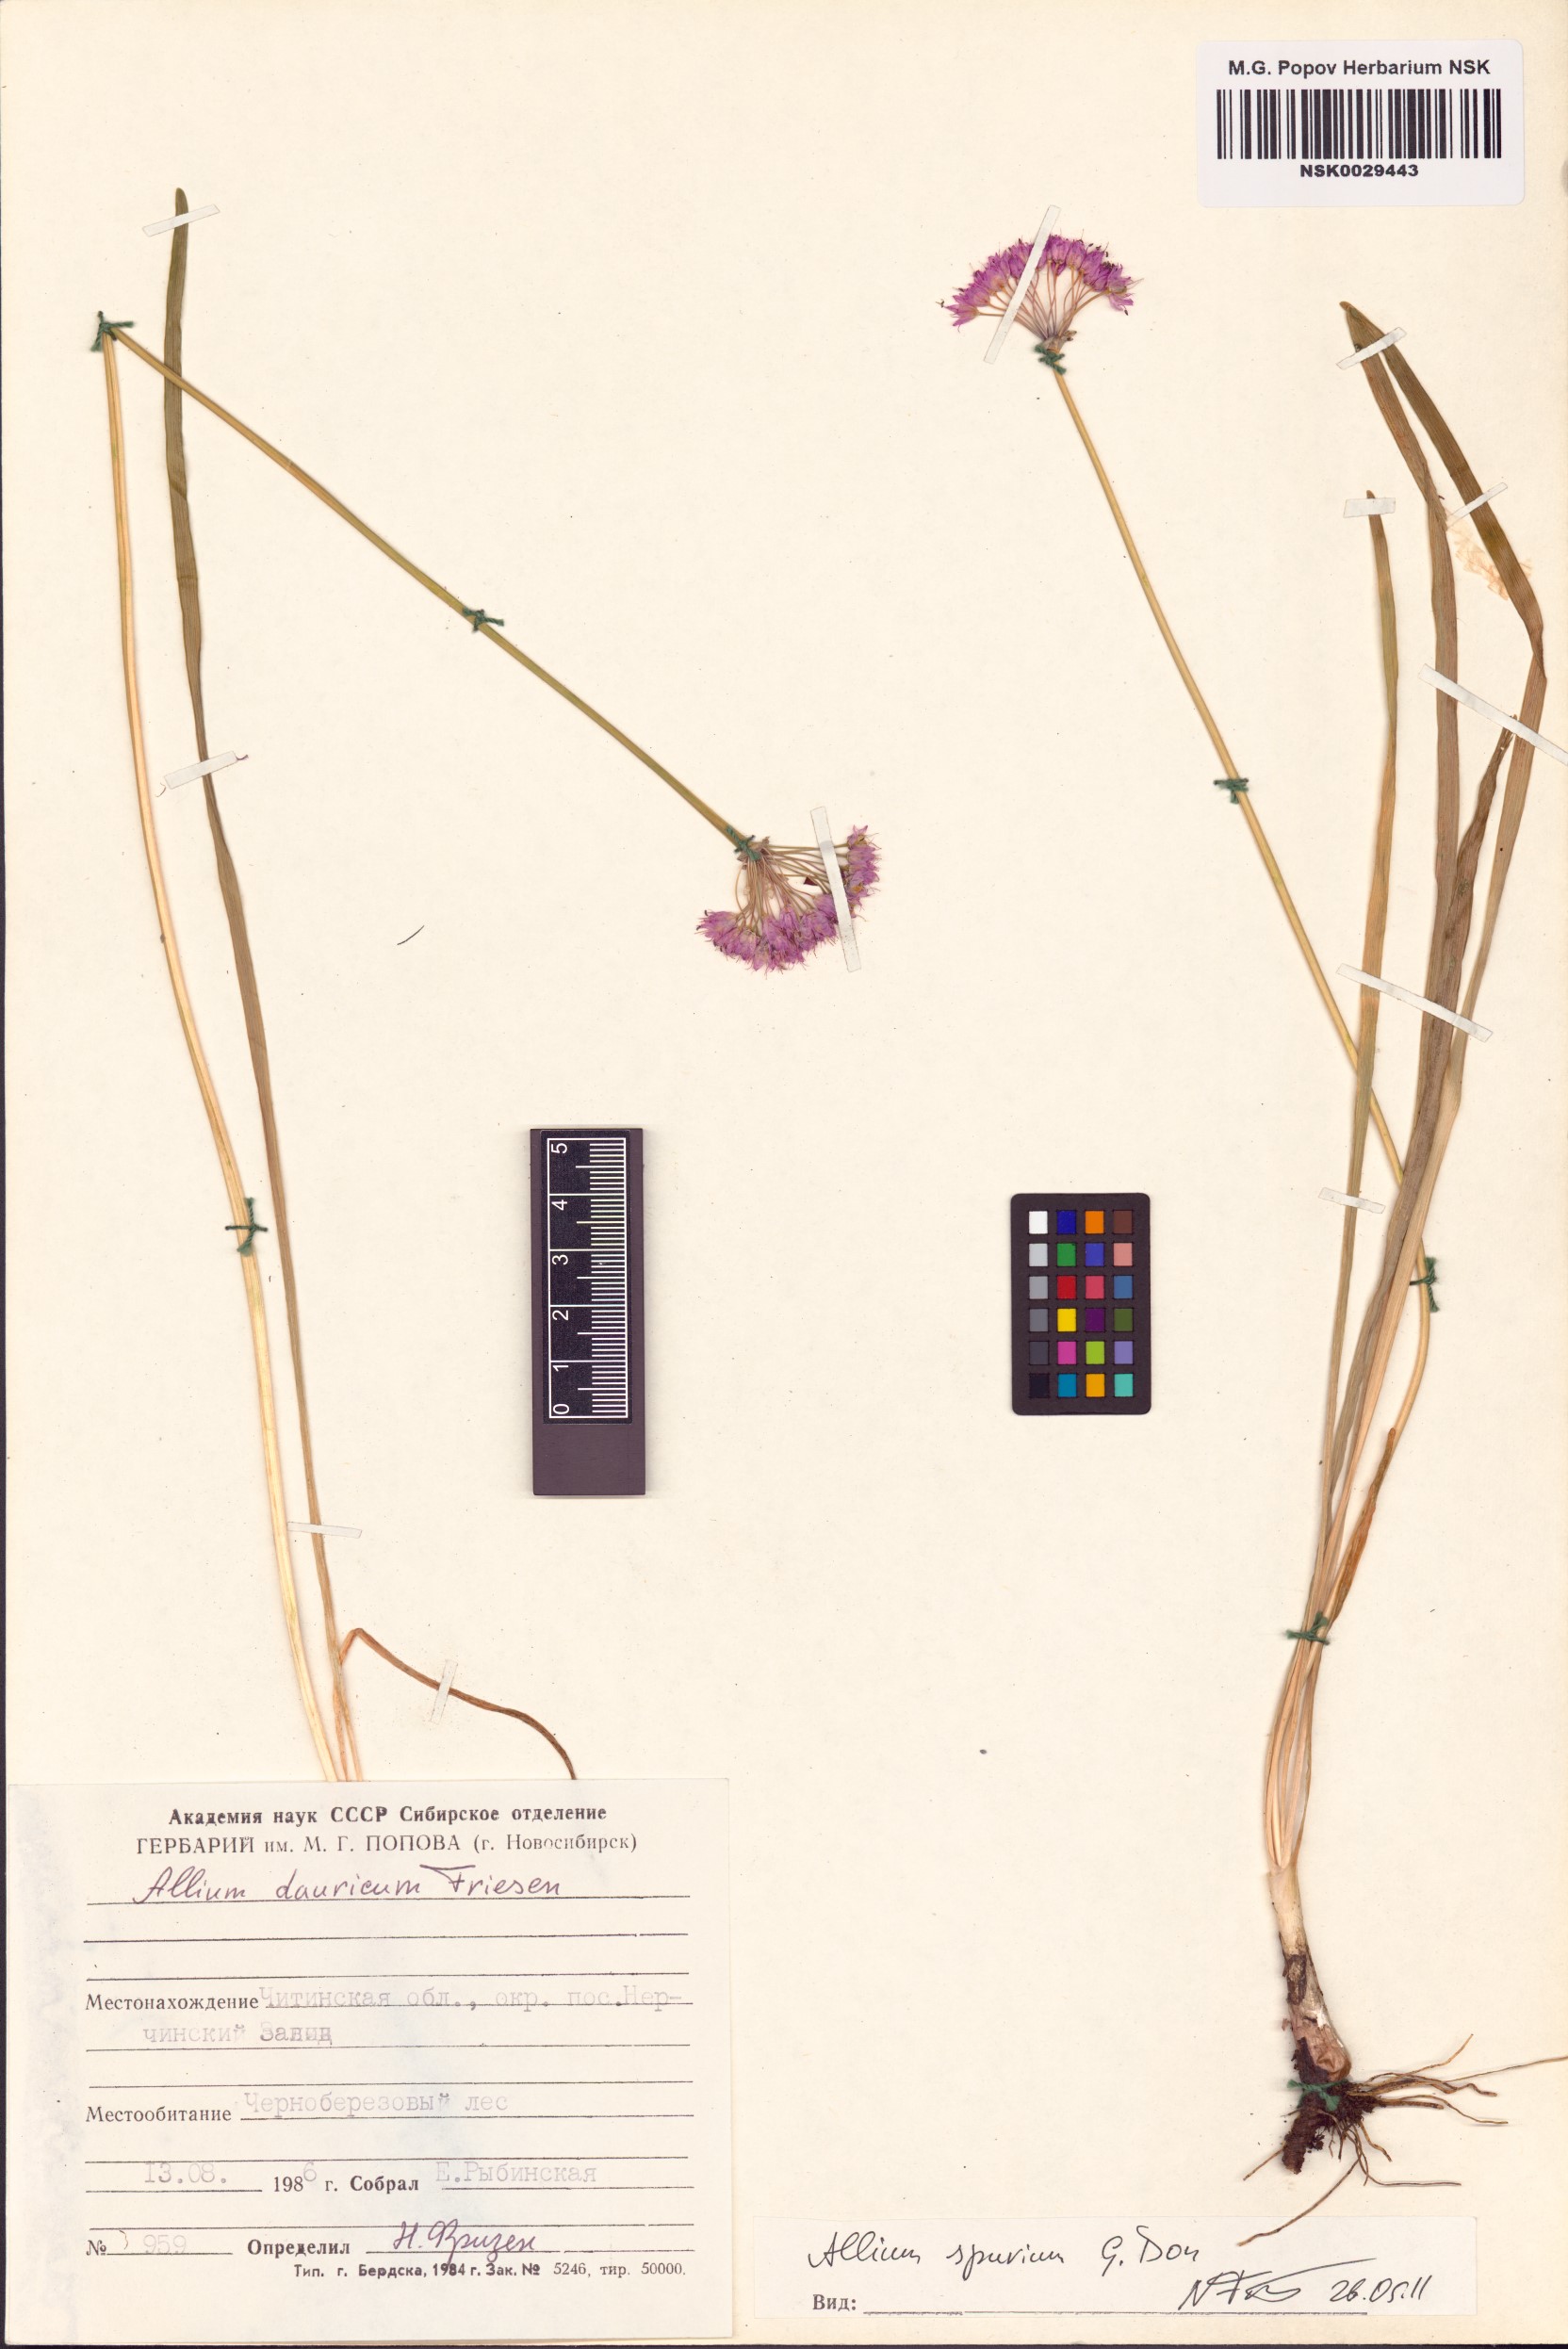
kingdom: Plantae
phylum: Tracheophyta
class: Liliopsida
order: Asparagales
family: Amaryllidaceae
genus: Allium
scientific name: Allium spurium
